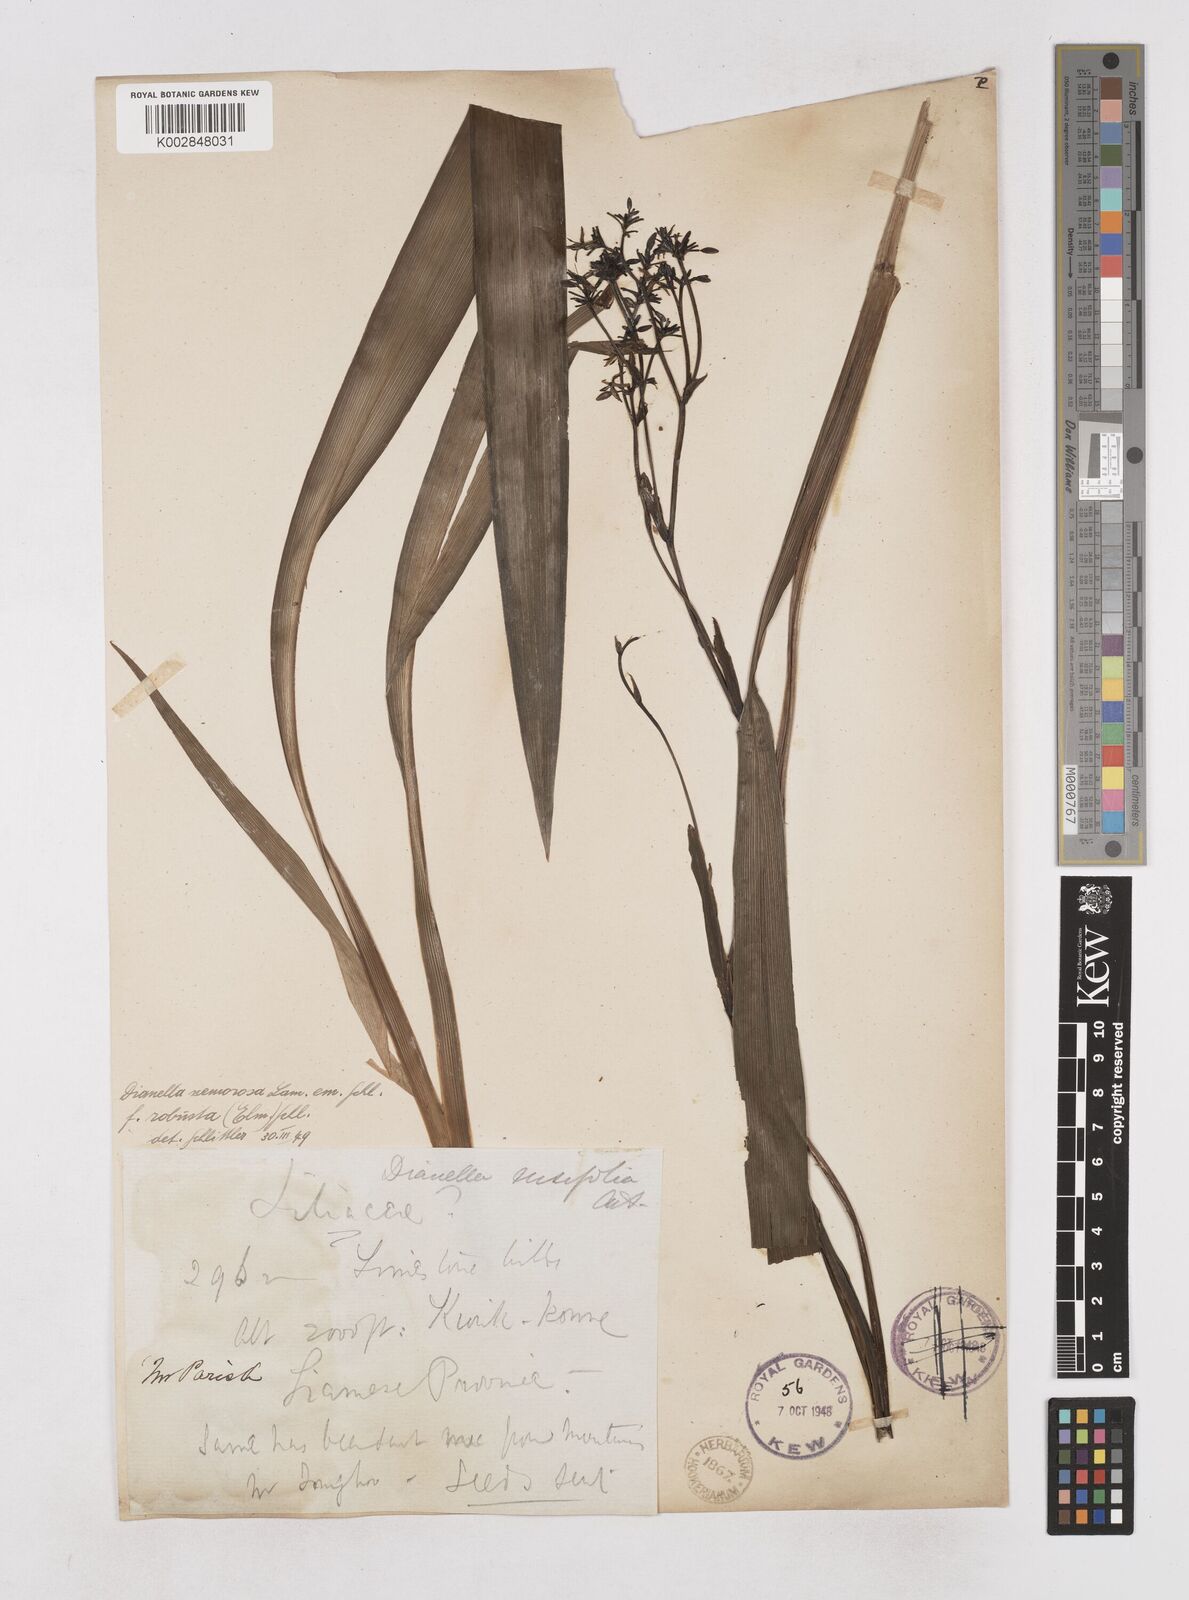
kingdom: Plantae
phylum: Tracheophyta
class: Liliopsida
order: Asparagales
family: Asphodelaceae
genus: Dianella
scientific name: Dianella ensifolia
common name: New zealand lilyplant
